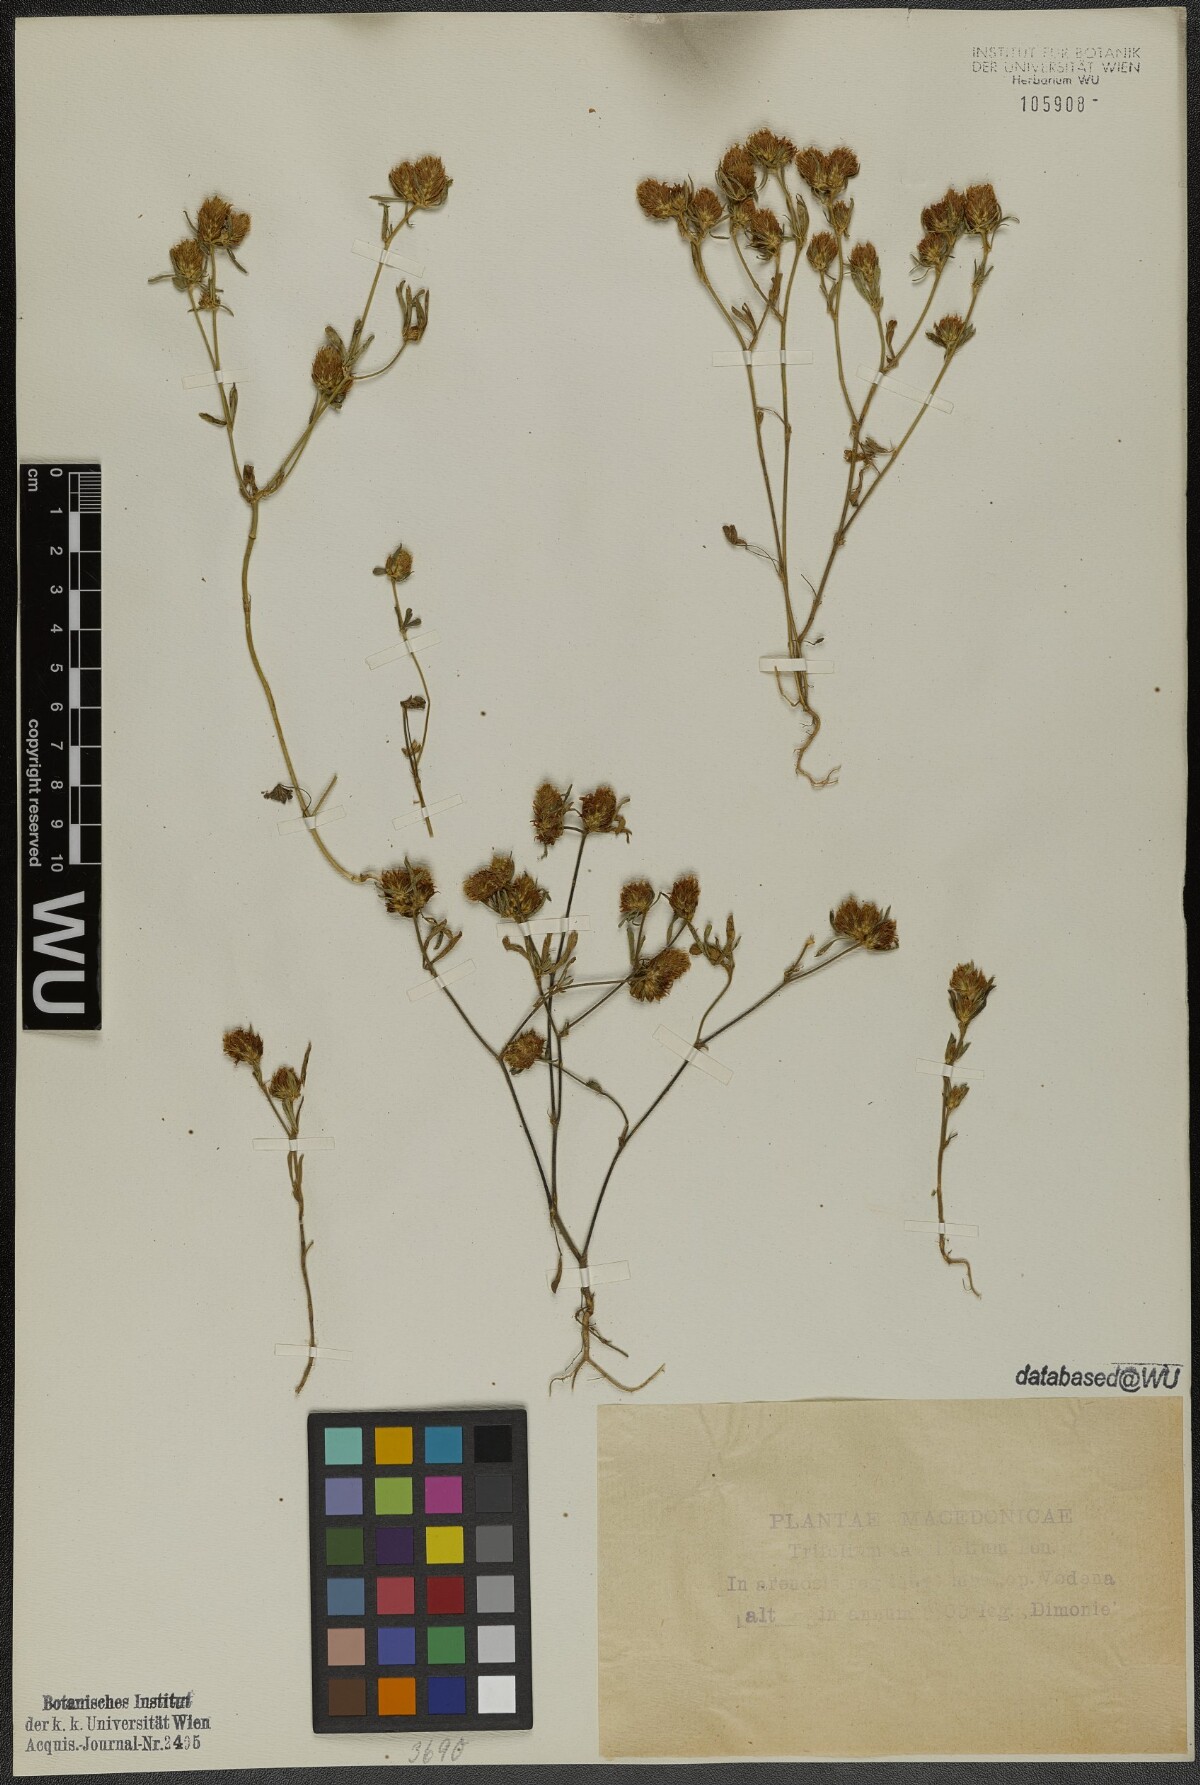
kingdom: Plantae
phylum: Tracheophyta
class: Magnoliopsida
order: Fabales
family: Fabaceae
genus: Trifolium
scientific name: Trifolium tenuifolium
